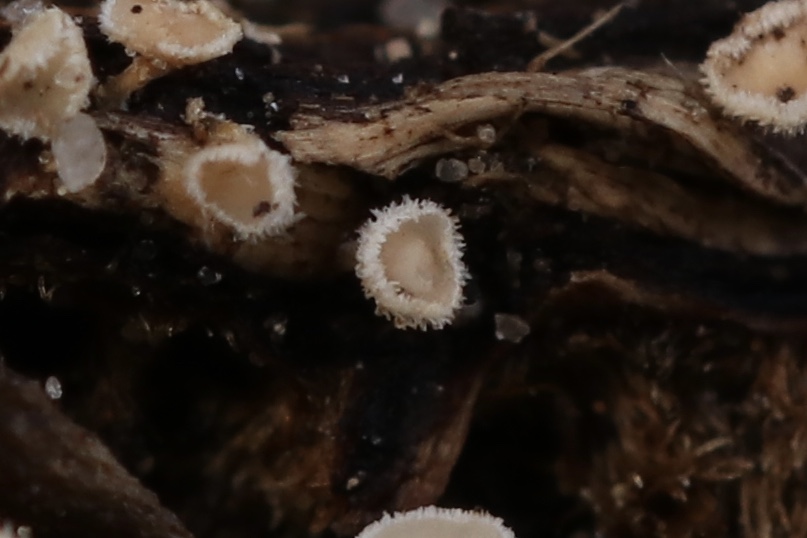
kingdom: Fungi
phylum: Ascomycota
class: Leotiomycetes
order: Helotiales
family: Lachnaceae
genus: Lachnum
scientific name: Lachnum
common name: frynseskive
